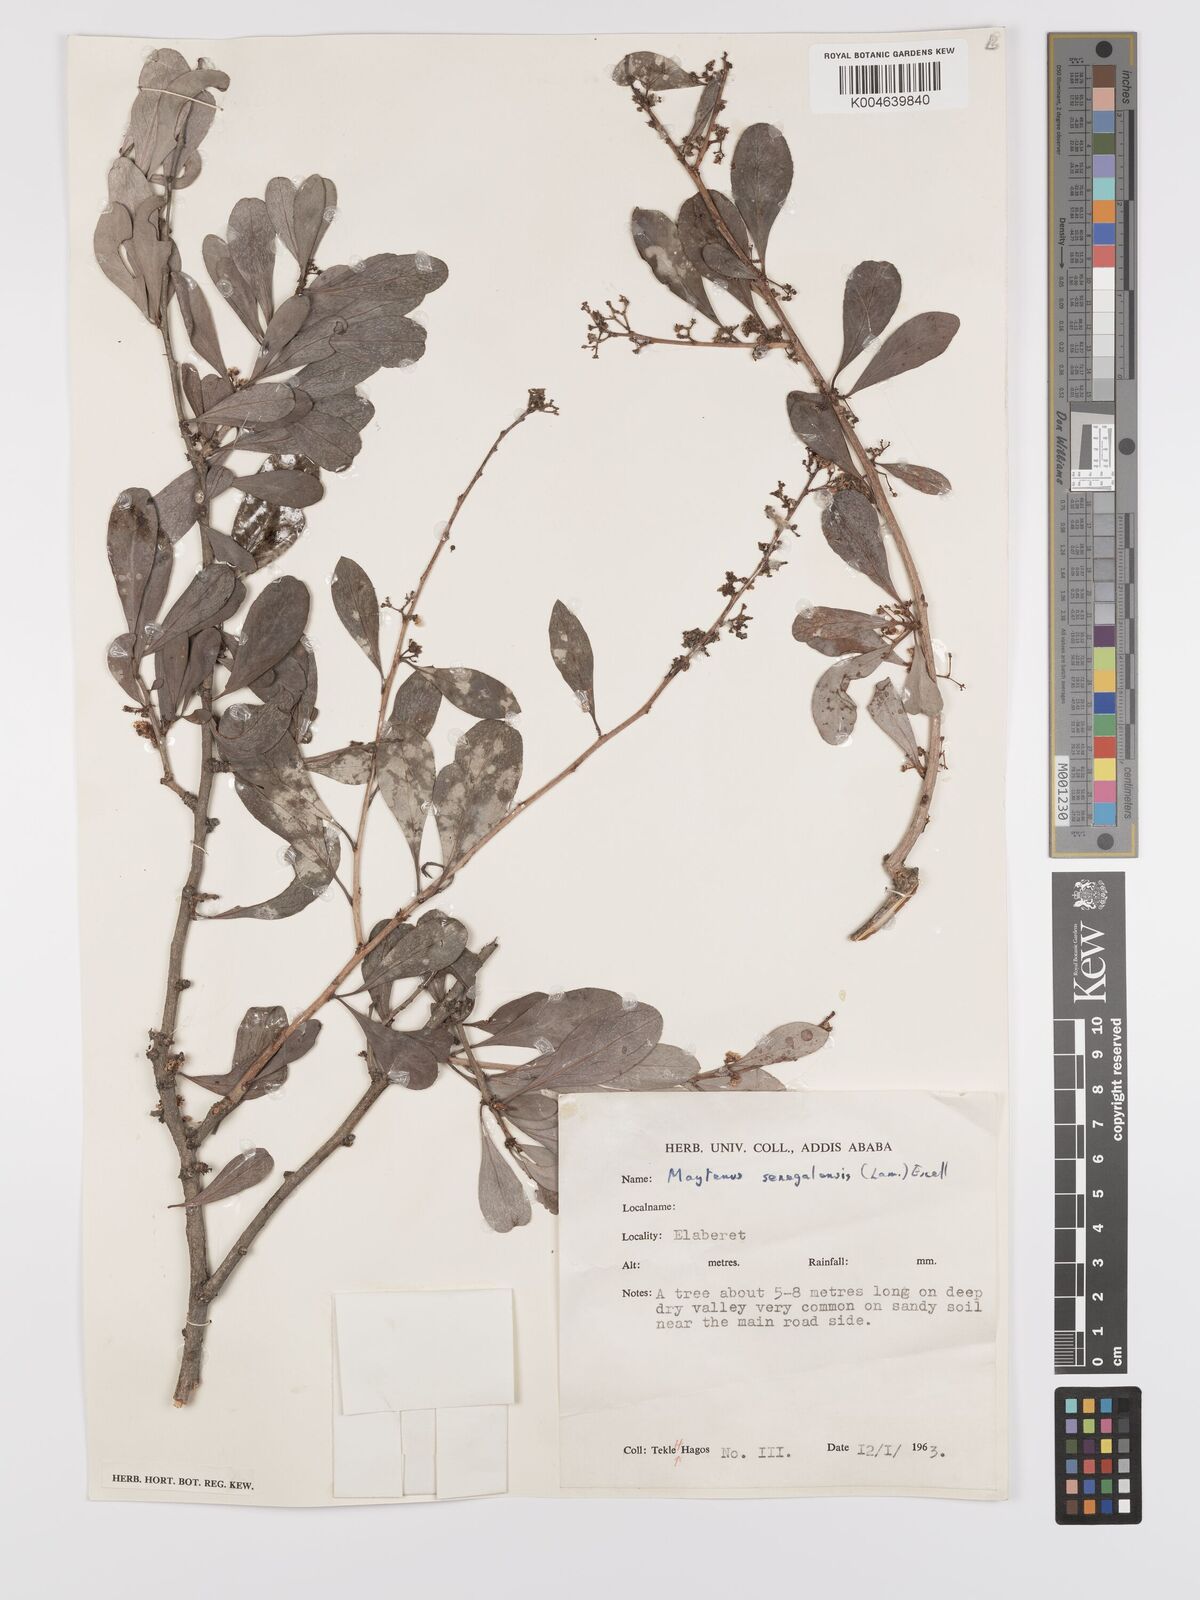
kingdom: Plantae
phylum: Tracheophyta
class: Magnoliopsida
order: Celastrales
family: Celastraceae
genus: Gymnosporia
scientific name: Gymnosporia senegalensis
